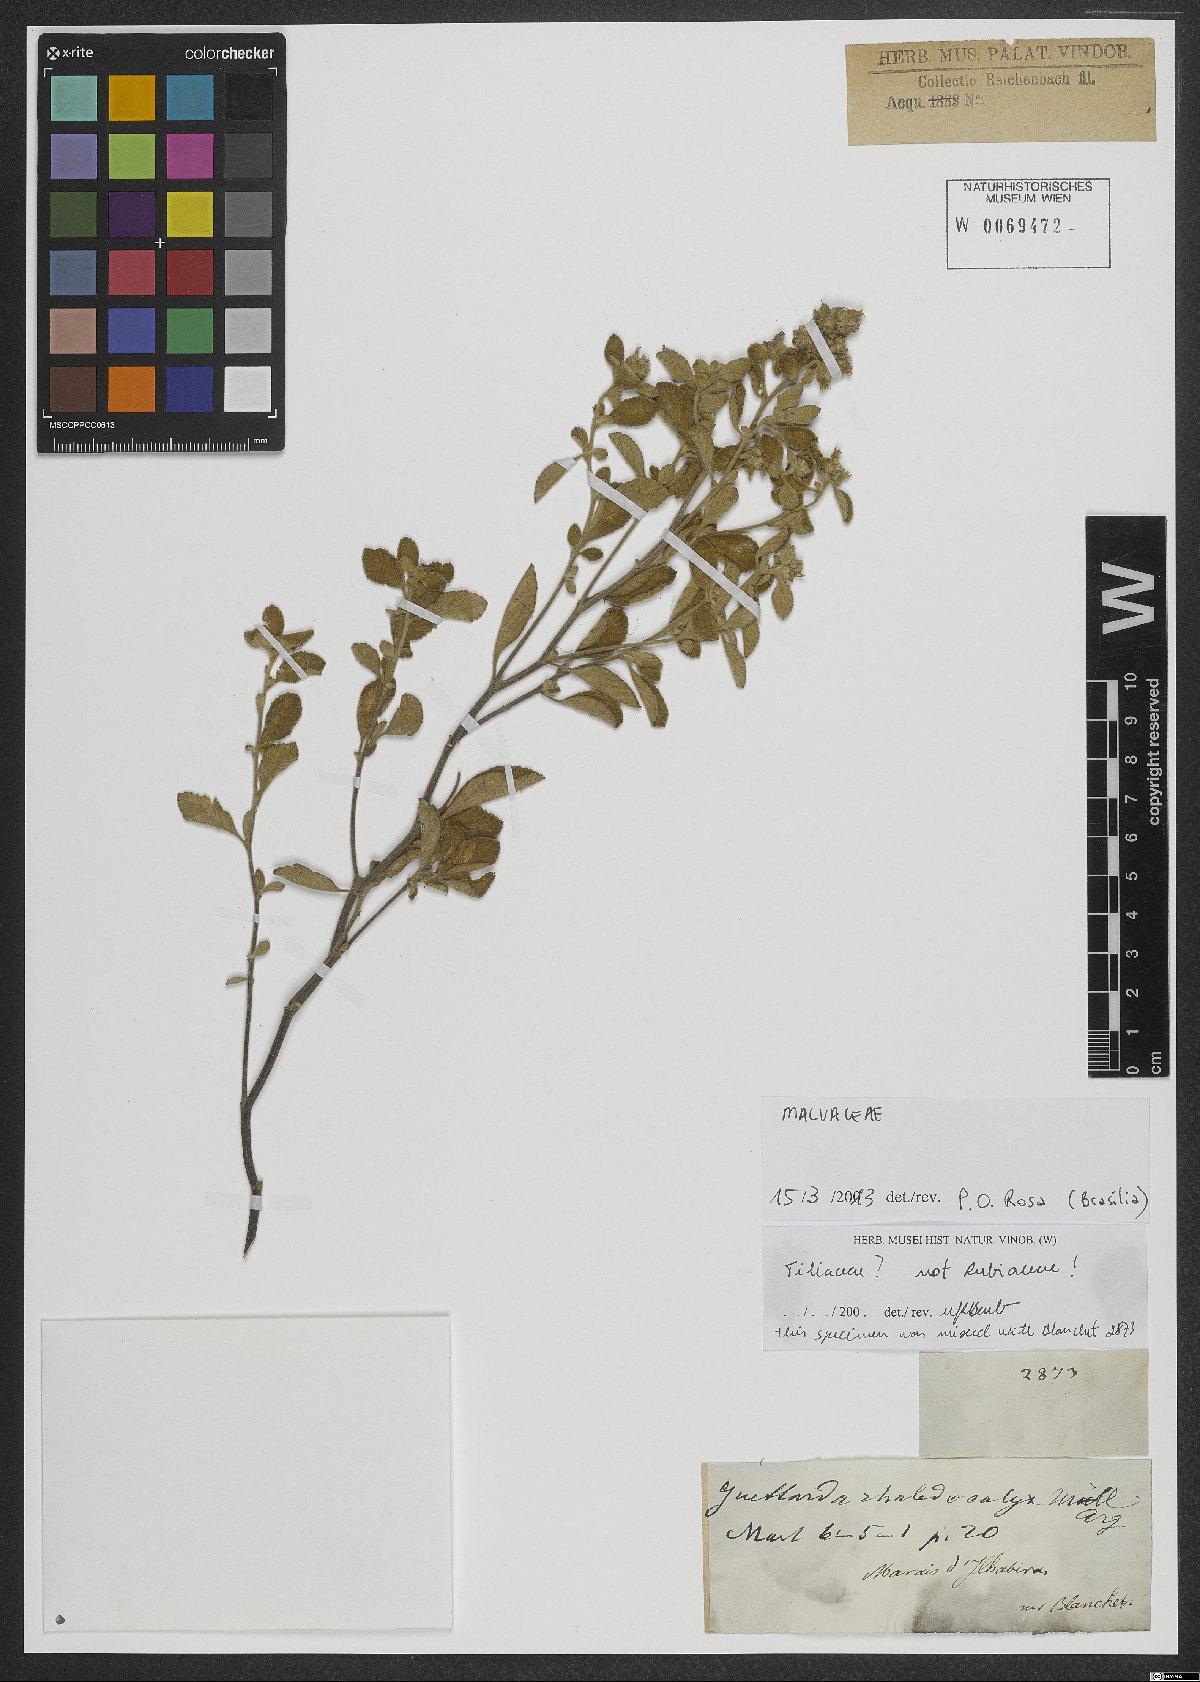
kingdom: Plantae
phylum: Tracheophyta
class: Magnoliopsida
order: Malvales
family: Malvaceae
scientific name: Malvaceae
